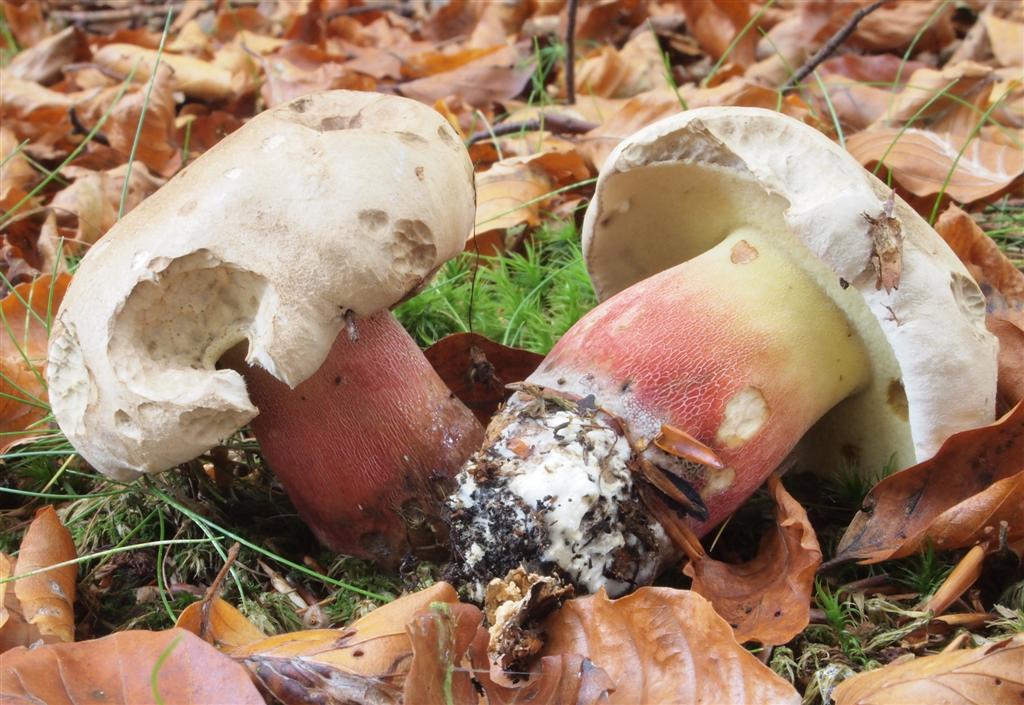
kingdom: Fungi
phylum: Basidiomycota
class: Agaricomycetes
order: Boletales
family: Boletaceae
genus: Caloboletus
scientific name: Caloboletus calopus
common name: skønfodet rørhat
